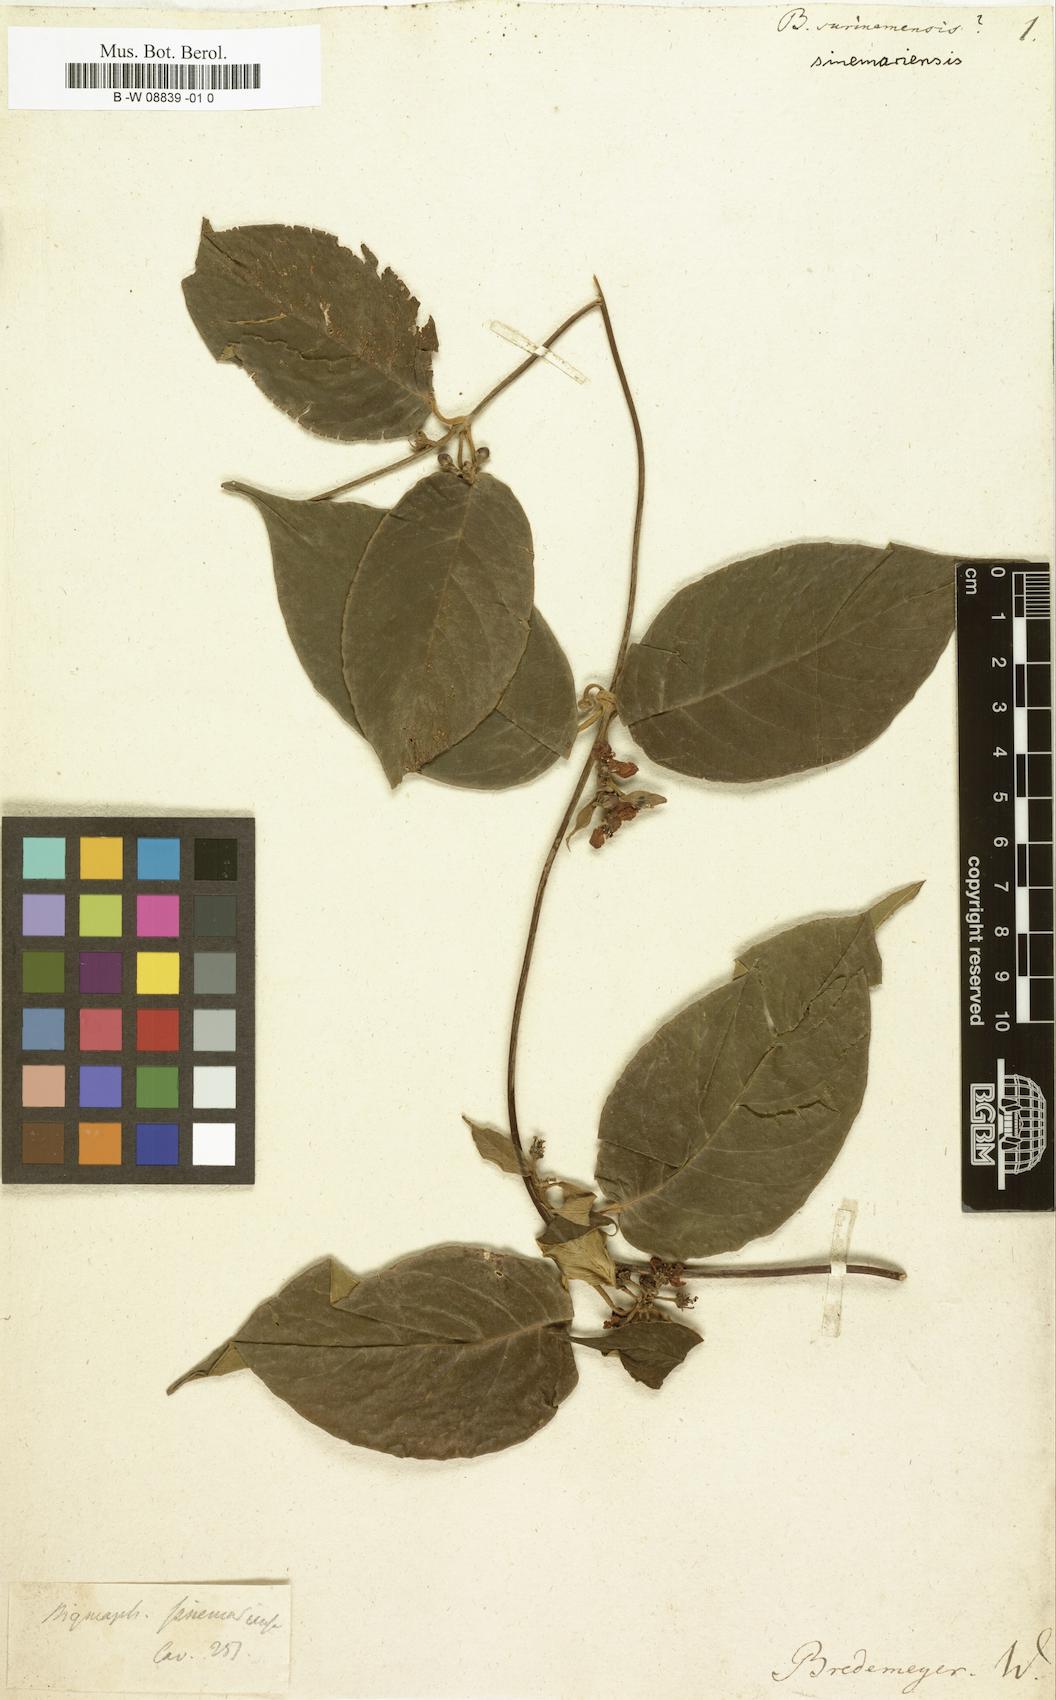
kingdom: Plantae
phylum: Tracheophyta
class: Magnoliopsida
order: Malpighiales
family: Malpighiaceae
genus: Carolus
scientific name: Carolus sinemariensis
